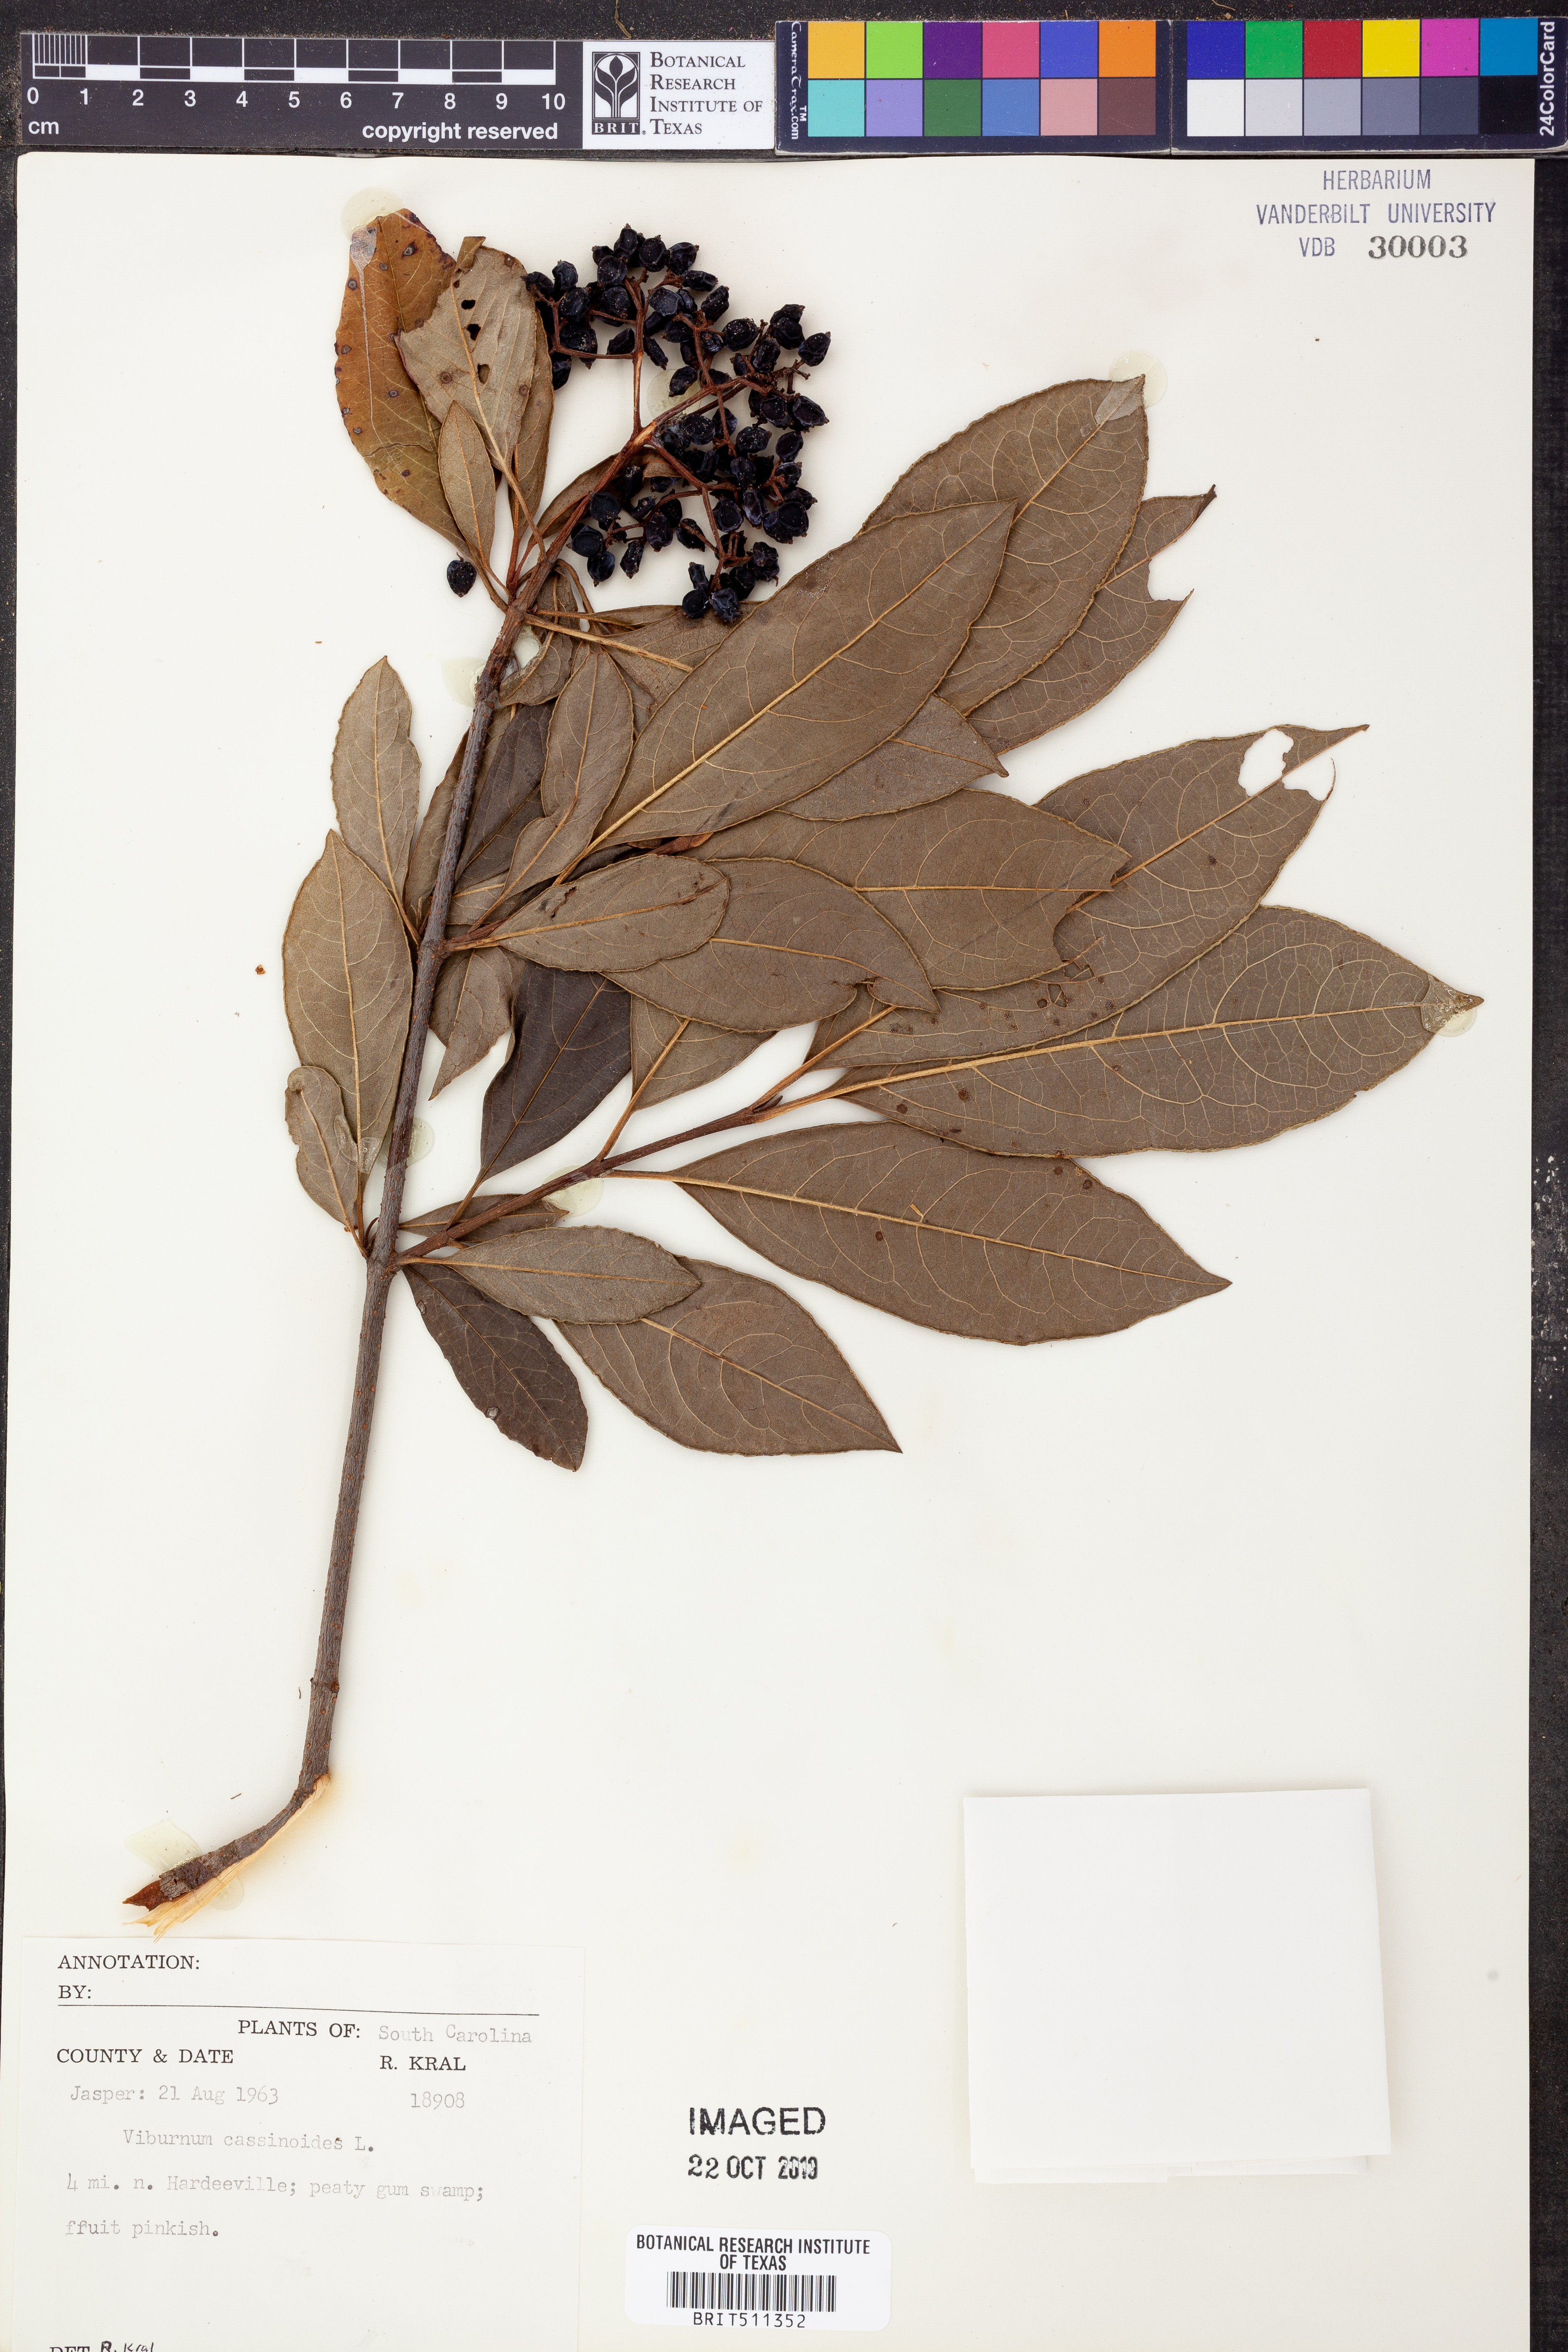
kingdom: Plantae
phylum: Tracheophyta
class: Magnoliopsida
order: Dipsacales
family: Viburnaceae
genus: Viburnum
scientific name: Viburnum cassinoides
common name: Swamp haw
